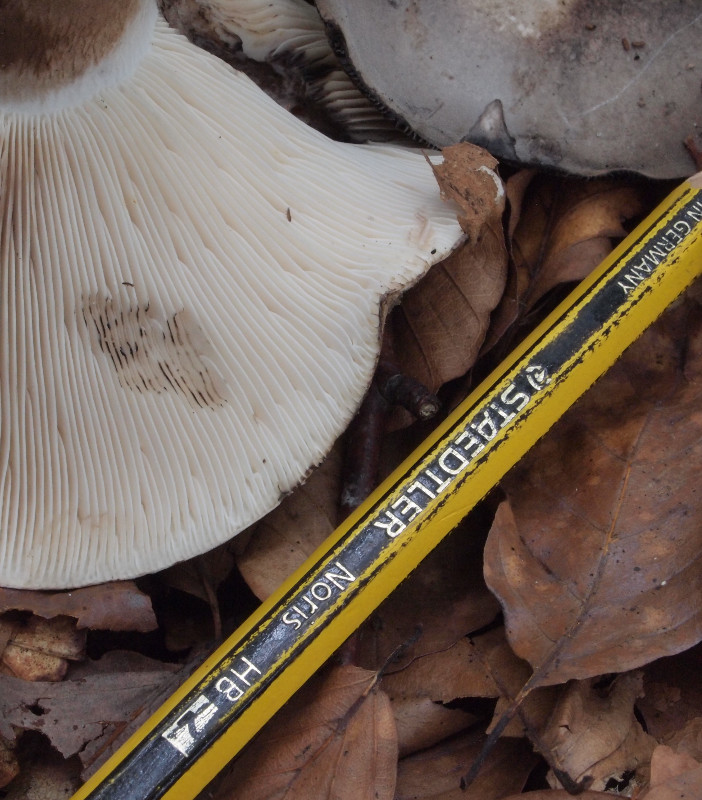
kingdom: Fungi
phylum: Basidiomycota
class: Agaricomycetes
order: Russulales
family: Russulaceae
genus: Russula
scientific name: Russula atramentosa
